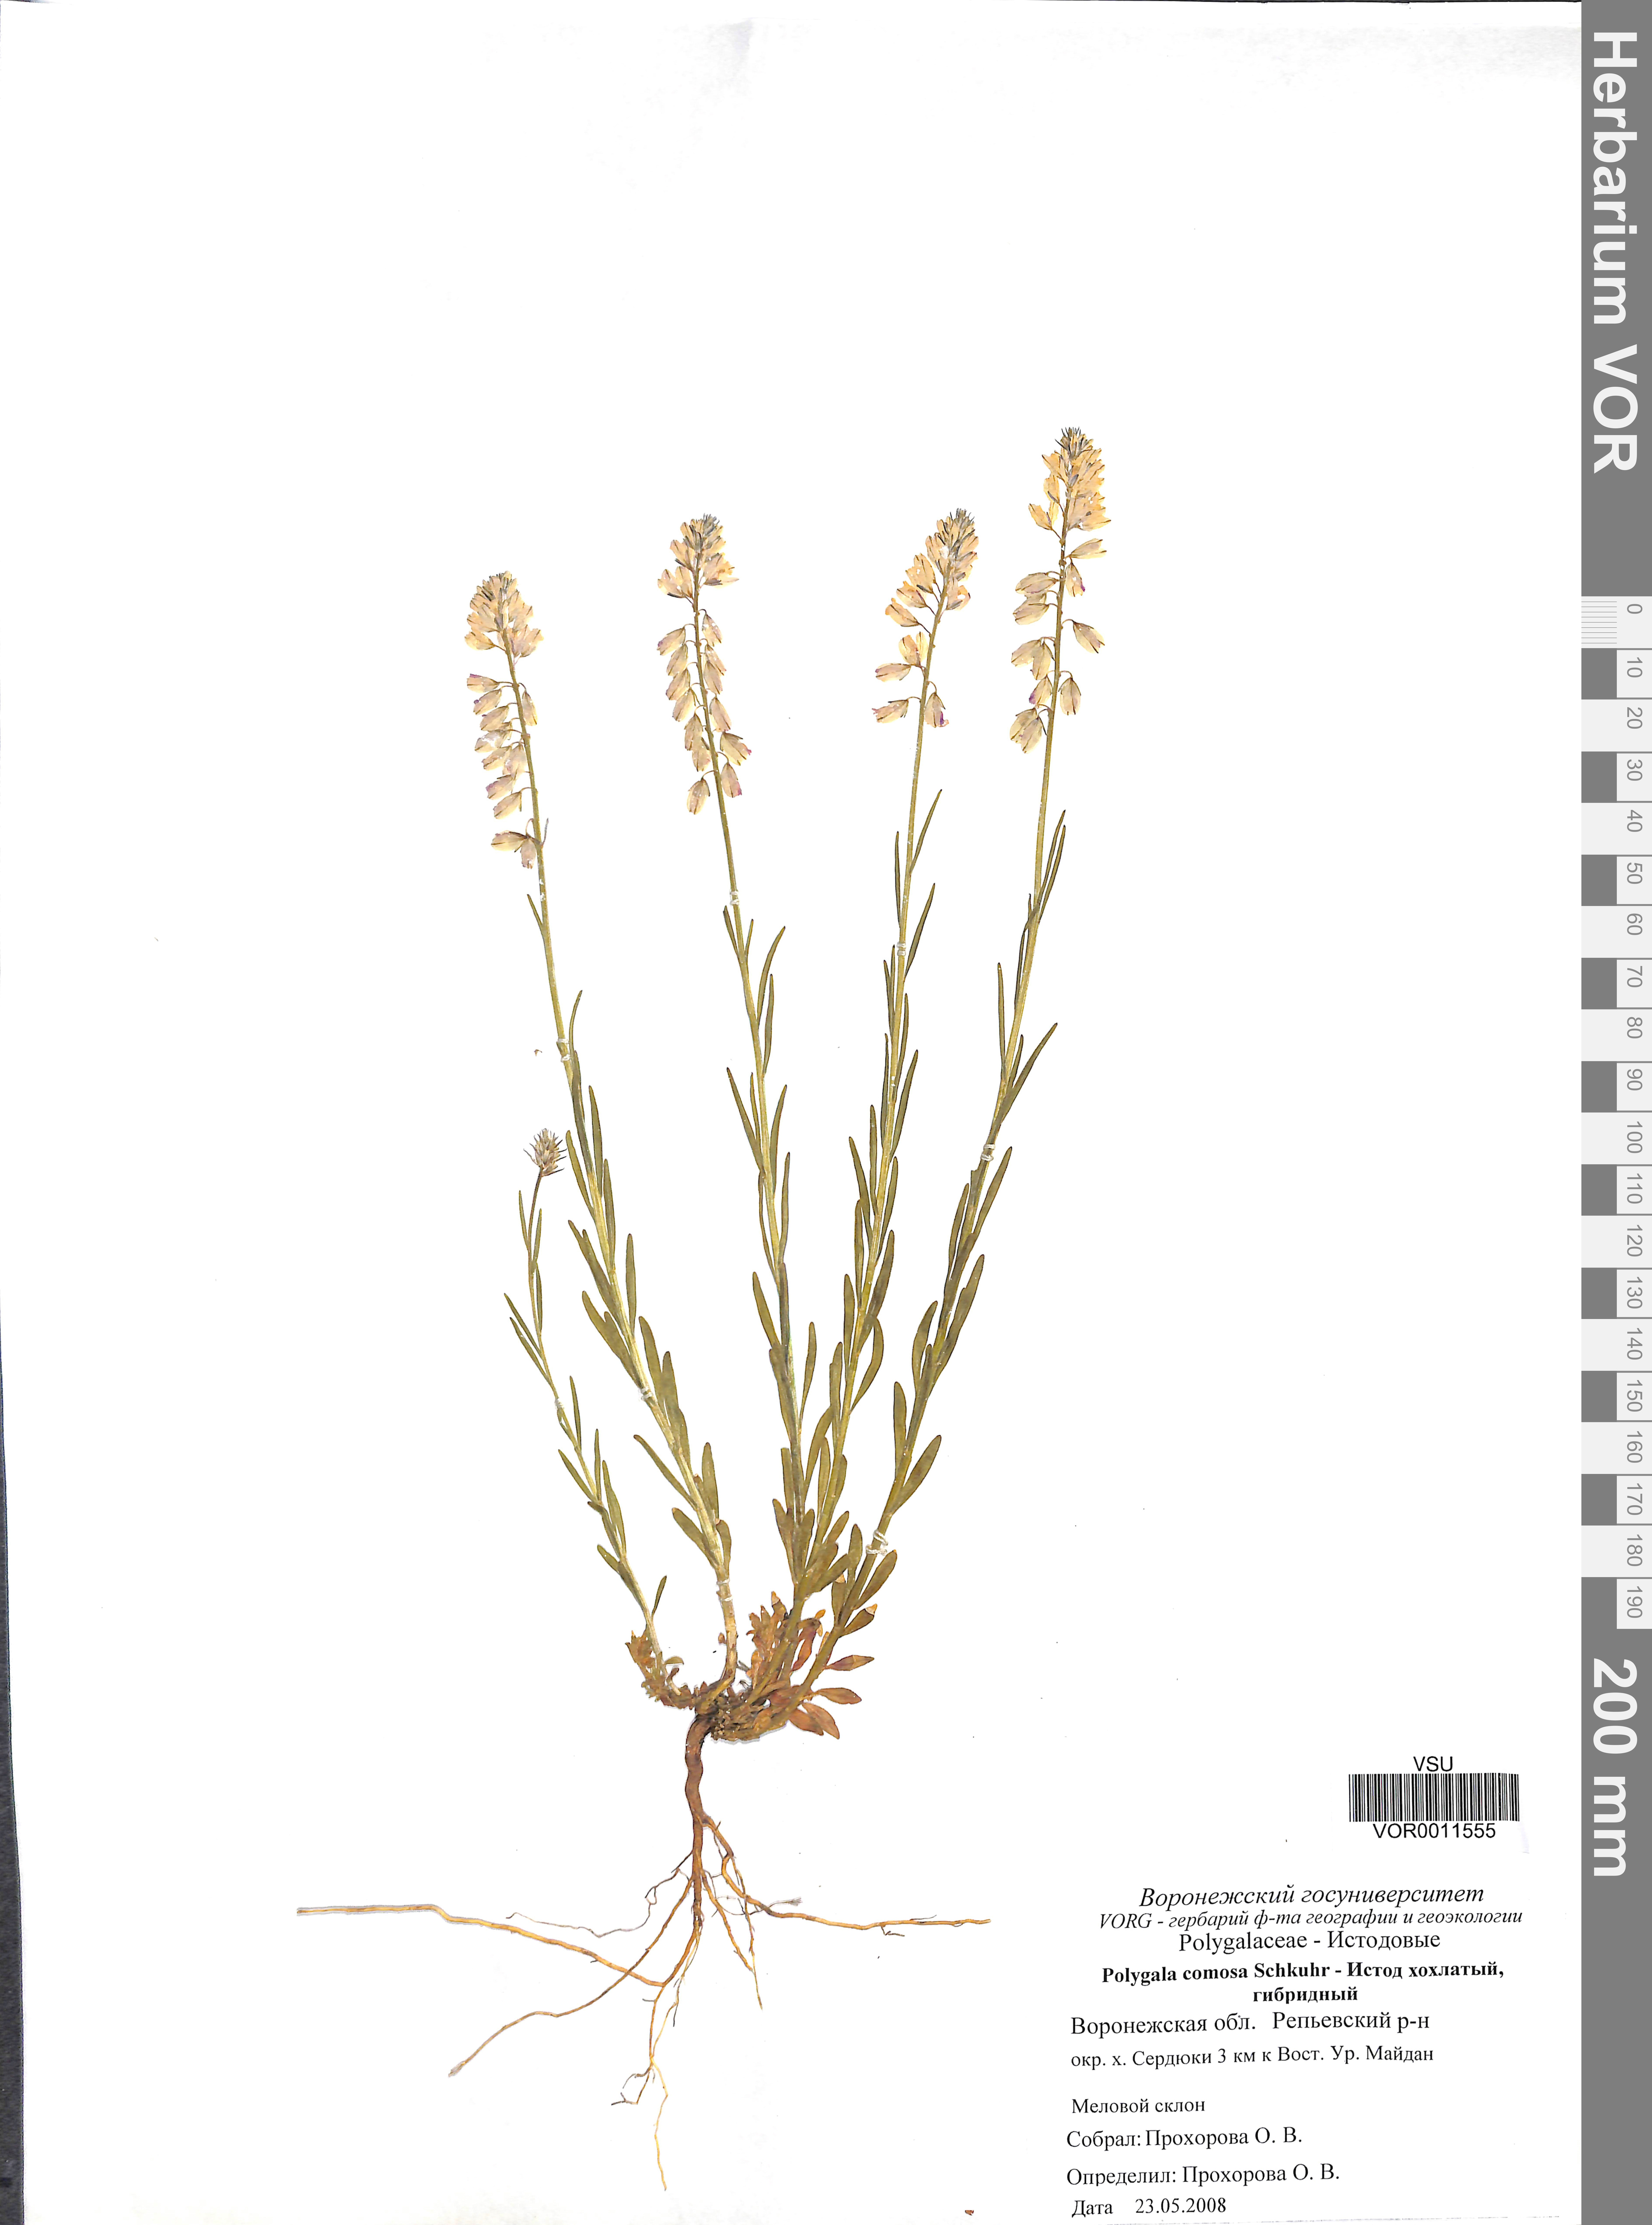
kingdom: Plantae
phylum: Tracheophyta
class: Magnoliopsida
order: Fabales
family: Polygalaceae
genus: Polygala
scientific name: Polygala comosa
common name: Tufted milkwort
